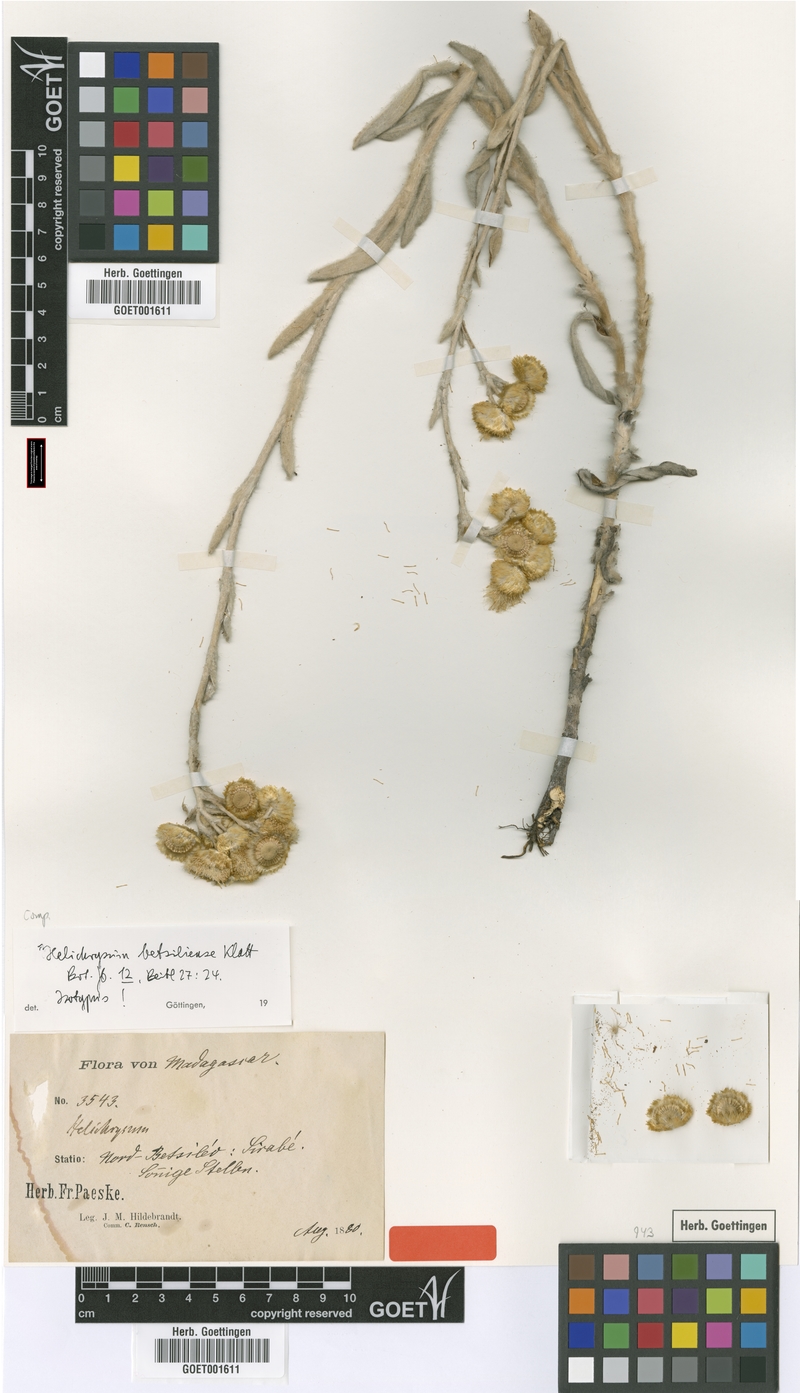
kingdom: Plantae
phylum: Tracheophyta
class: Magnoliopsida
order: Asterales
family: Asteraceae
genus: Helichrysum
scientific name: Helichrysum betsiliense
